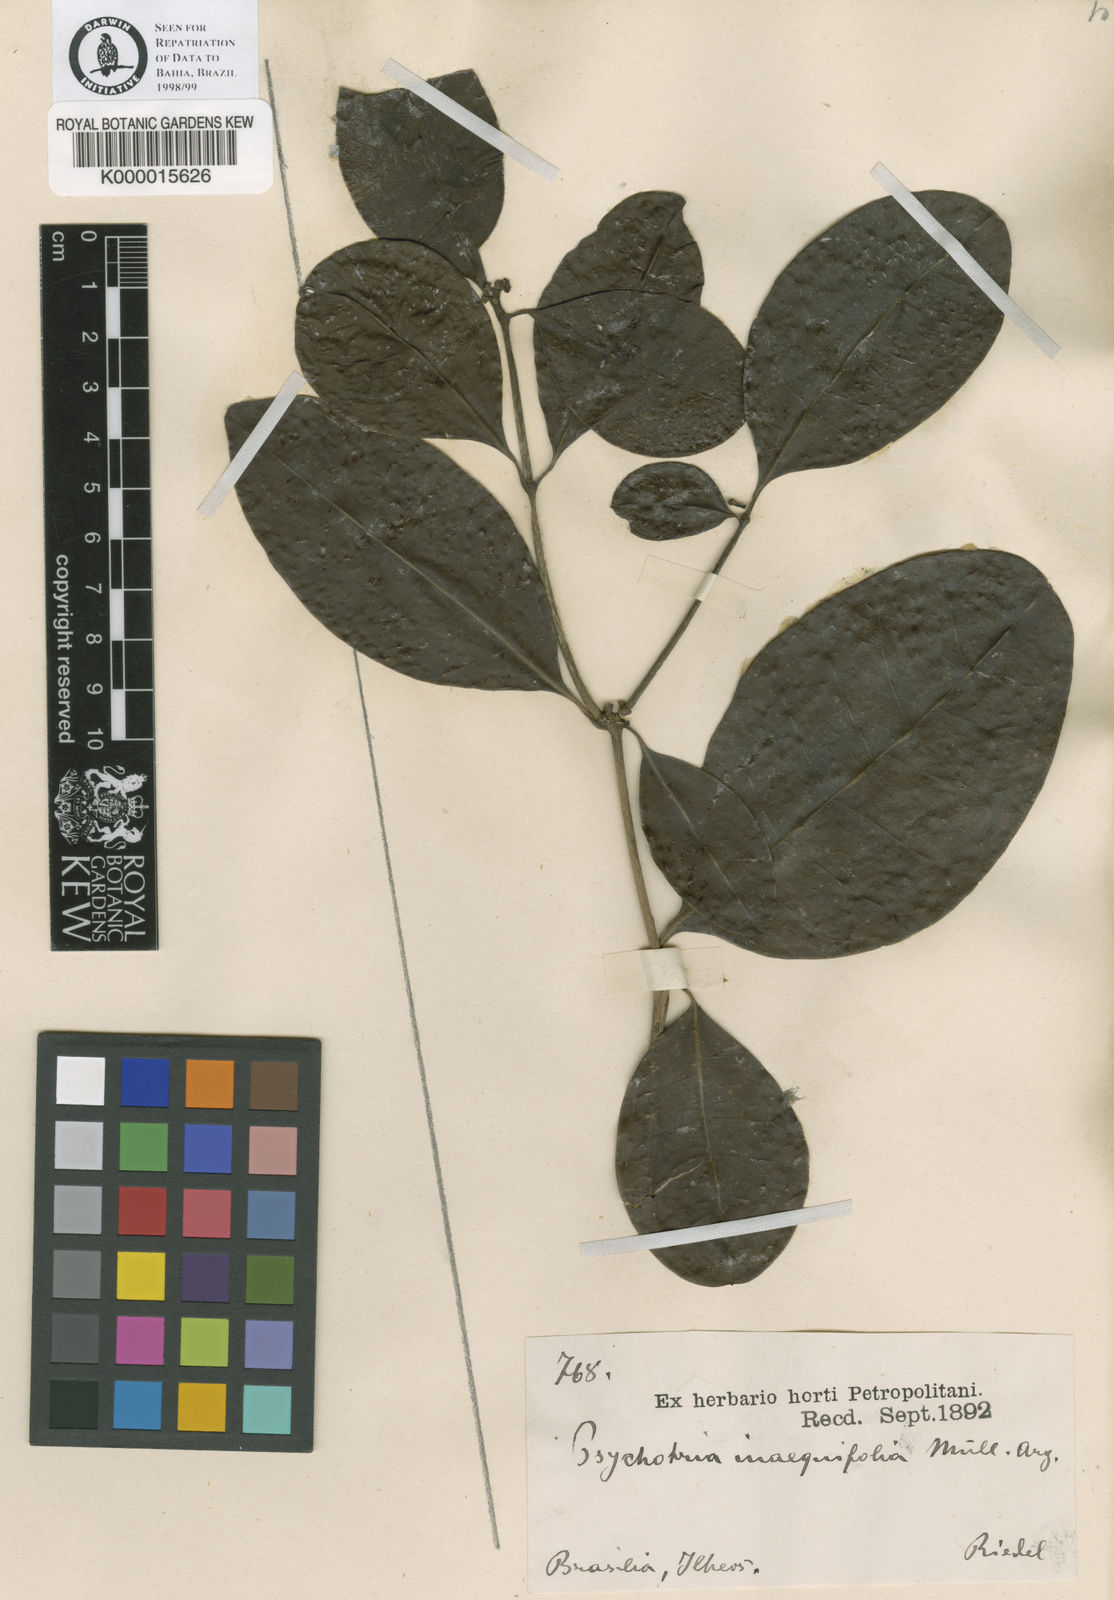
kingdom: Plantae
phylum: Tracheophyta
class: Magnoliopsida
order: Gentianales
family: Rubiaceae
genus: Eumachia
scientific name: Eumachia
